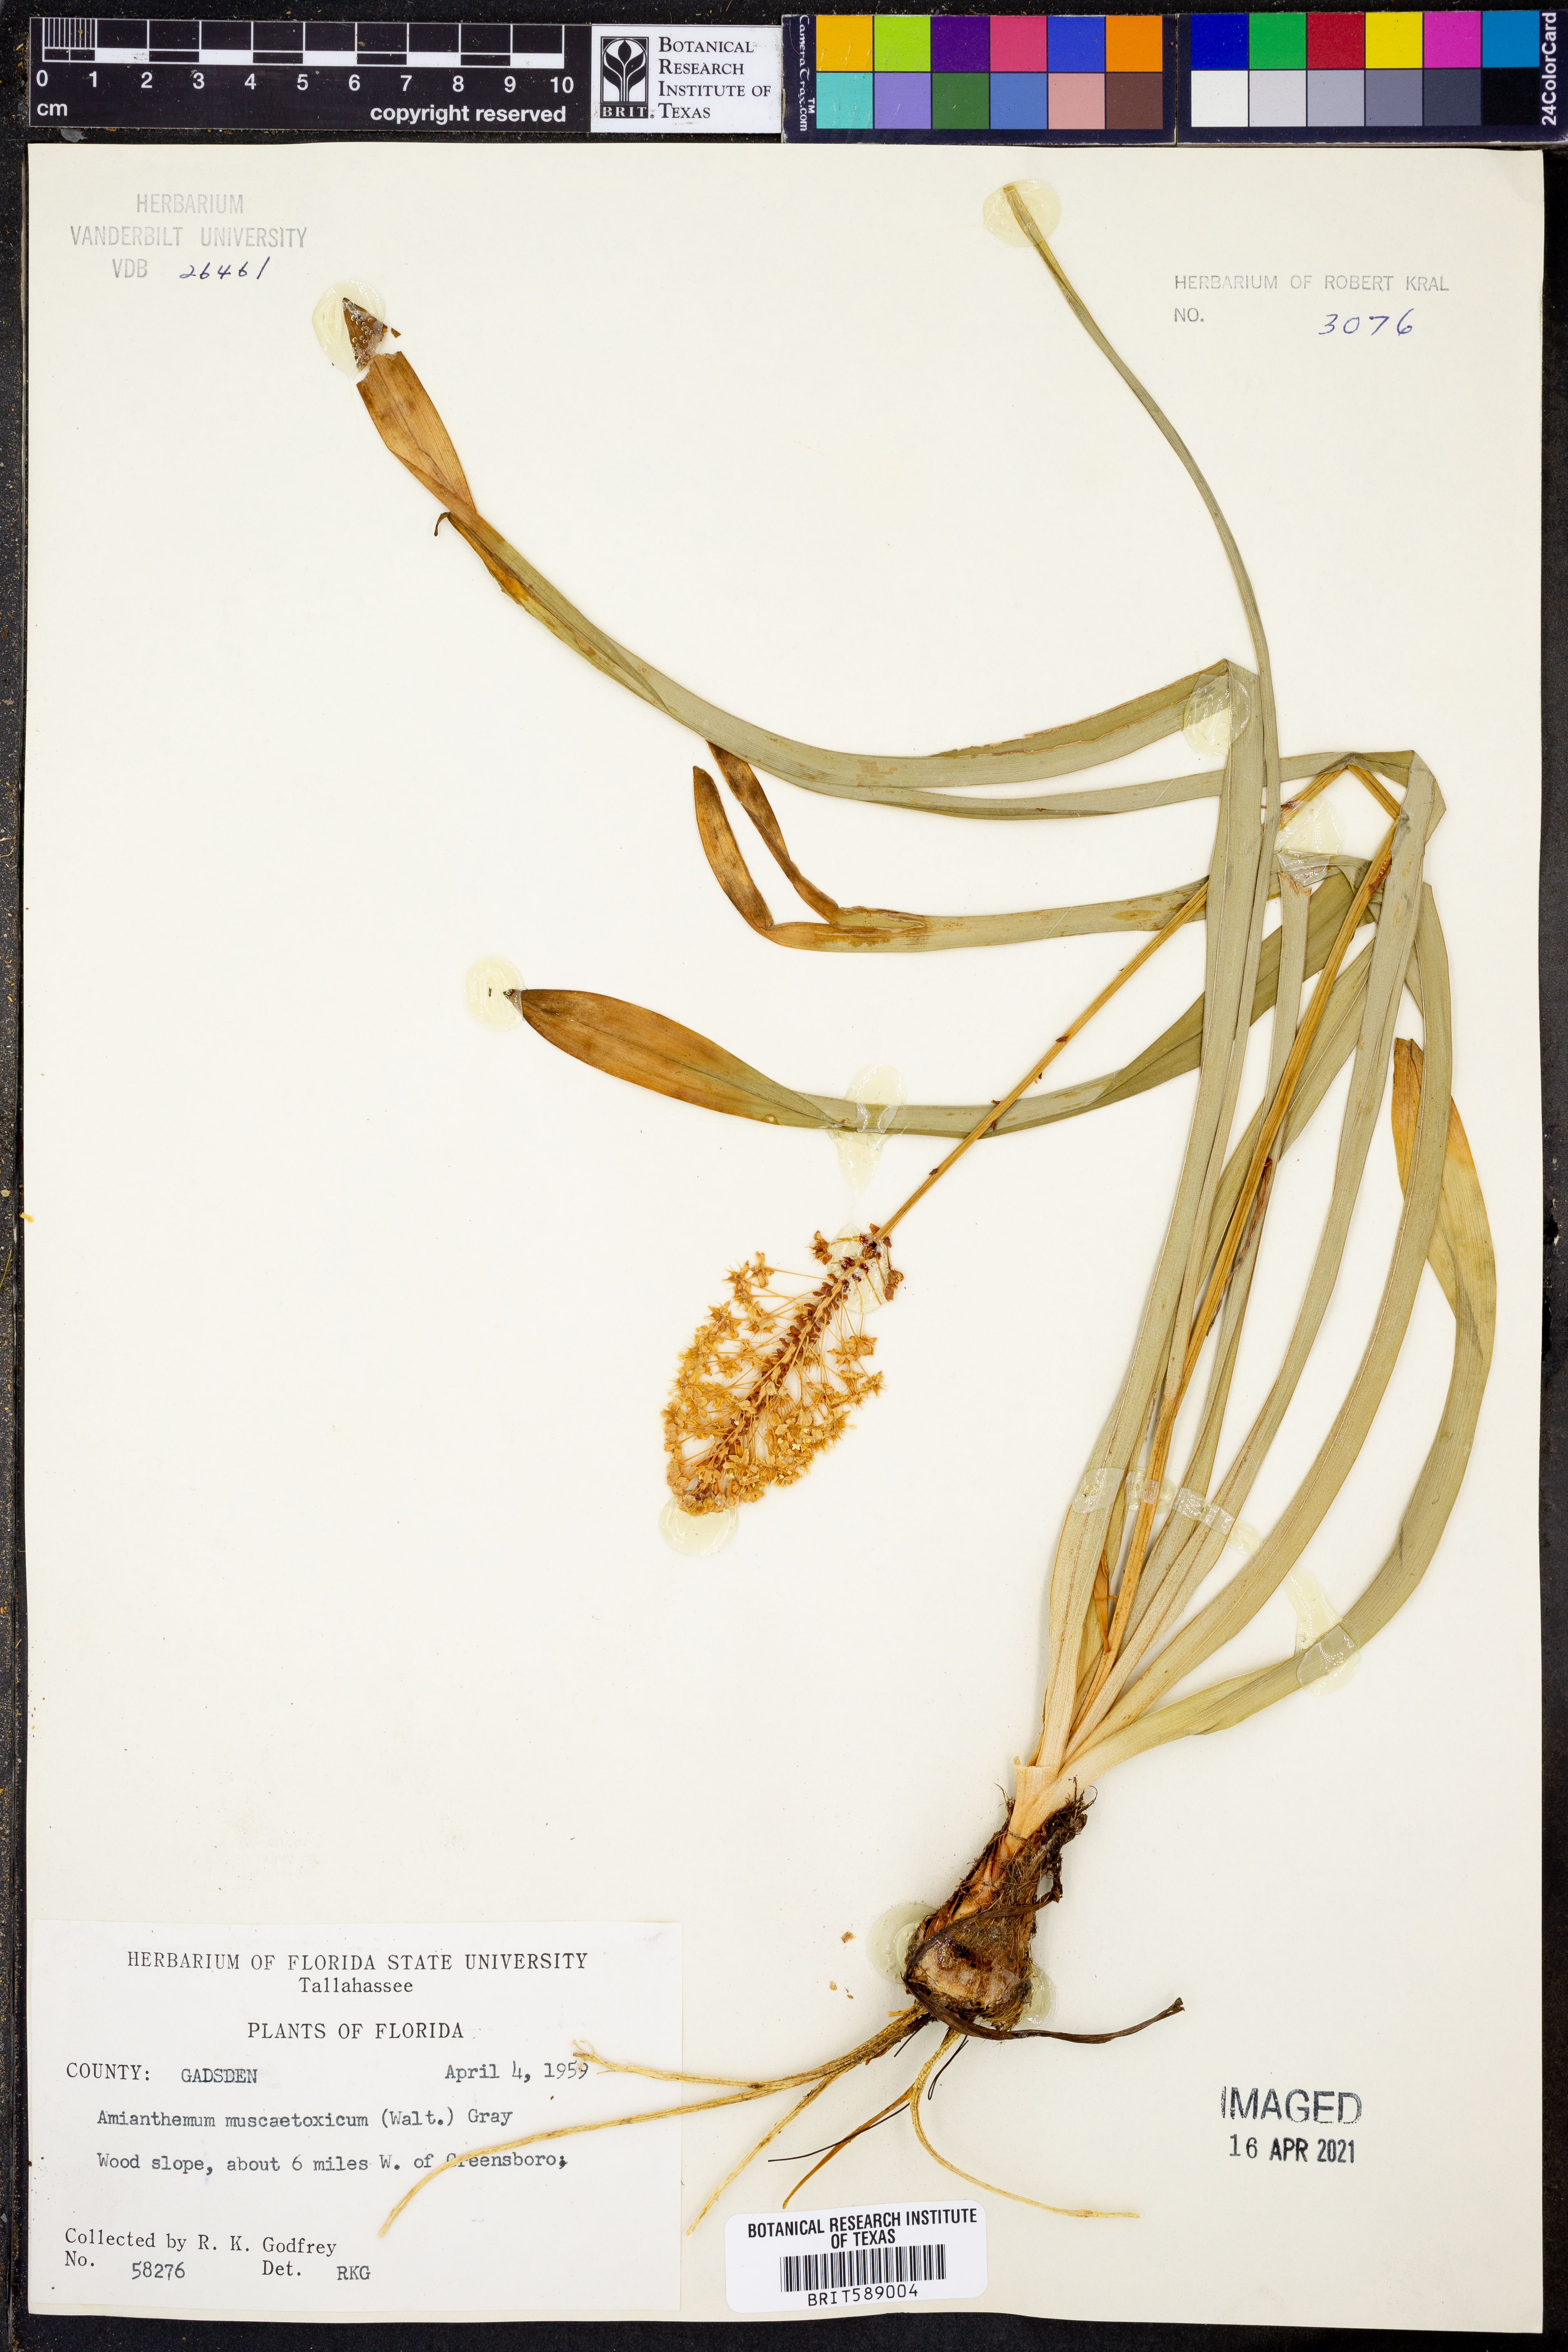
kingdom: Plantae
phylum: Tracheophyta
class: Liliopsida
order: Liliales
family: Melanthiaceae
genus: Amianthium
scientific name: Amianthium muscitoxicum
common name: Fly-poison
